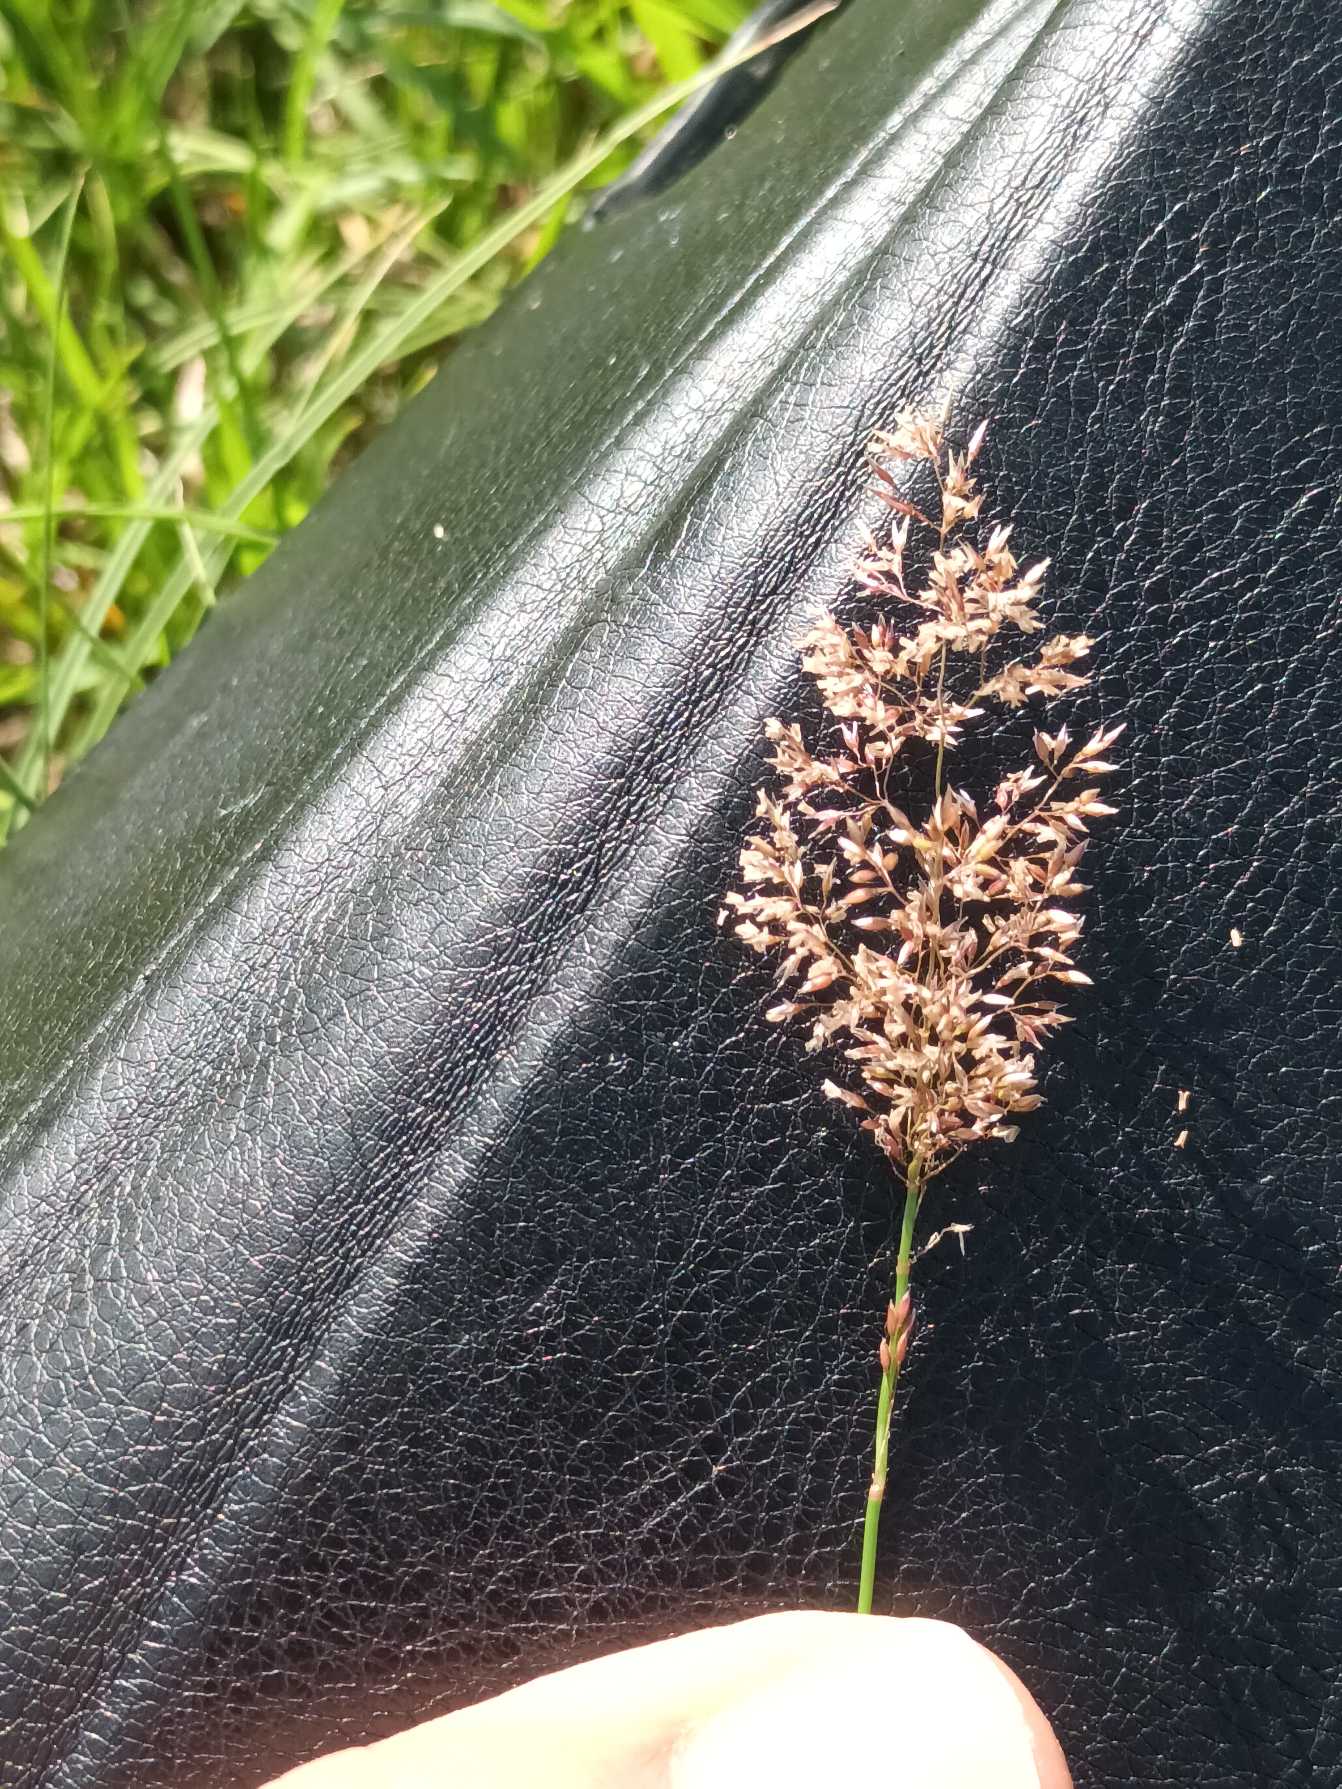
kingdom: Plantae
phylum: Tracheophyta
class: Liliopsida
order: Poales
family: Poaceae
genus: Agrostis
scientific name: Agrostis capillaris
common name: Almindelig hvene
